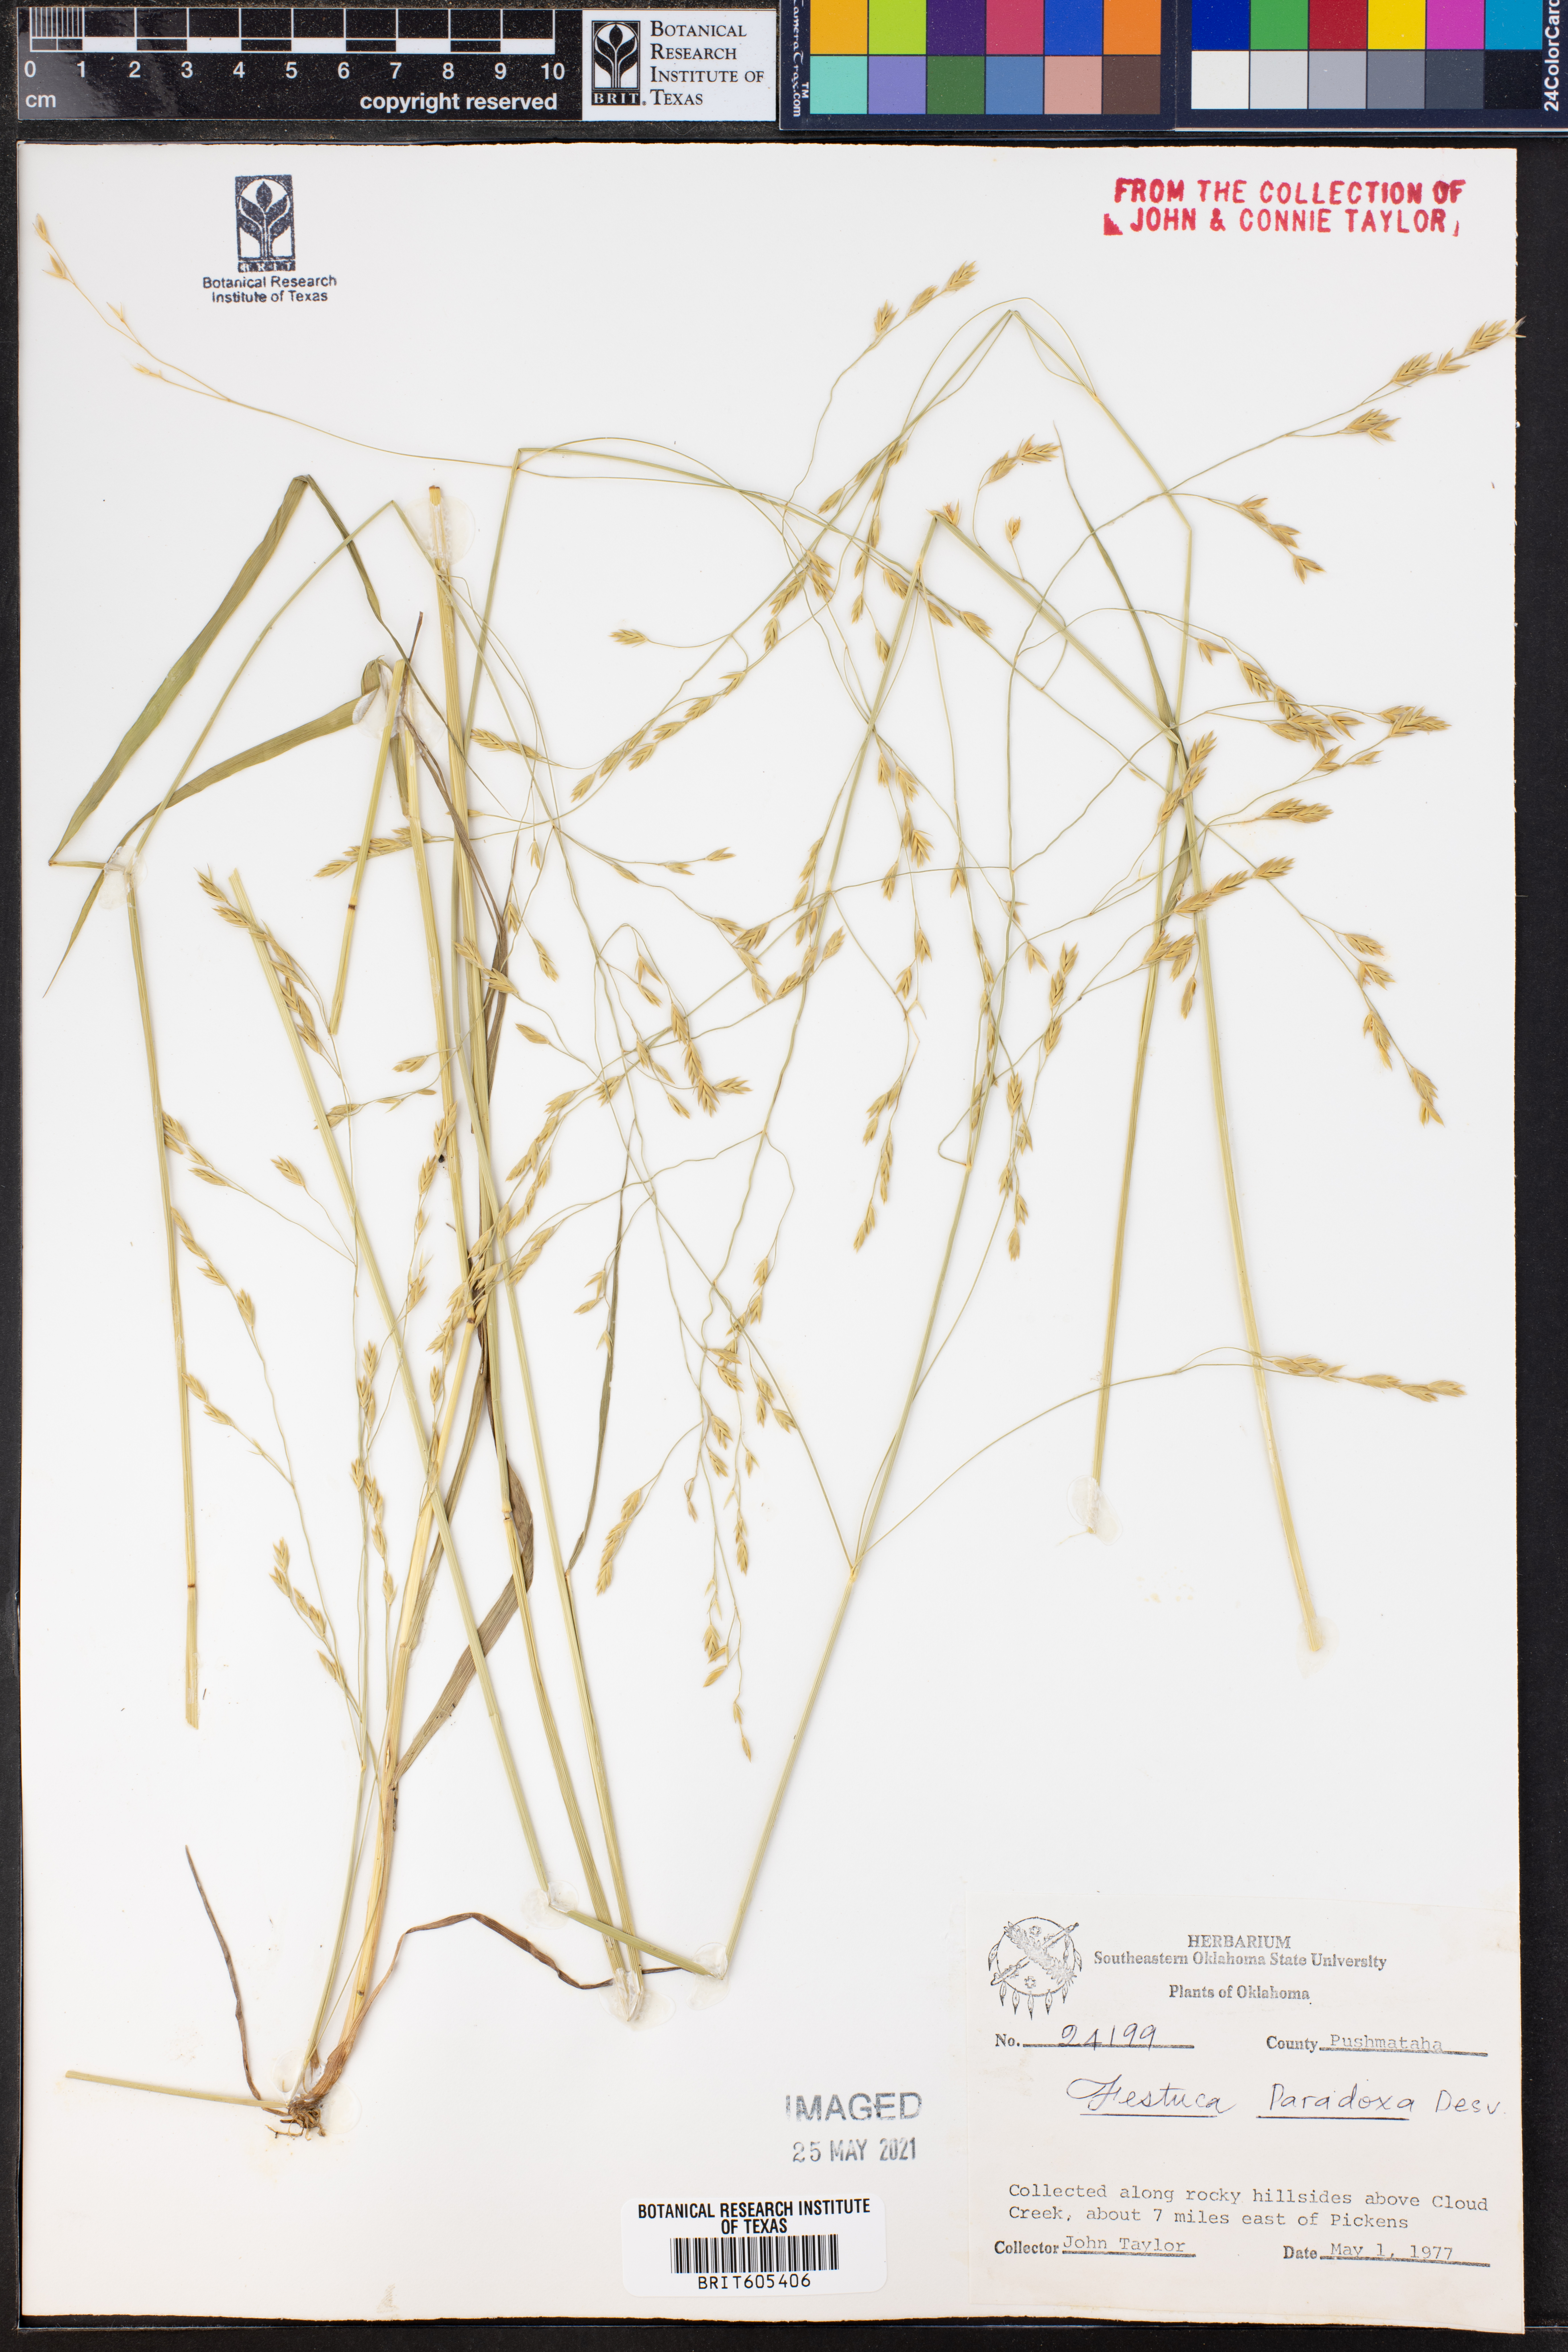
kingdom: Plantae
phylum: Tracheophyta
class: Liliopsida
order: Poales
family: Poaceae
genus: Festuca
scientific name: Festuca paradoxa
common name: Cluster fescue
